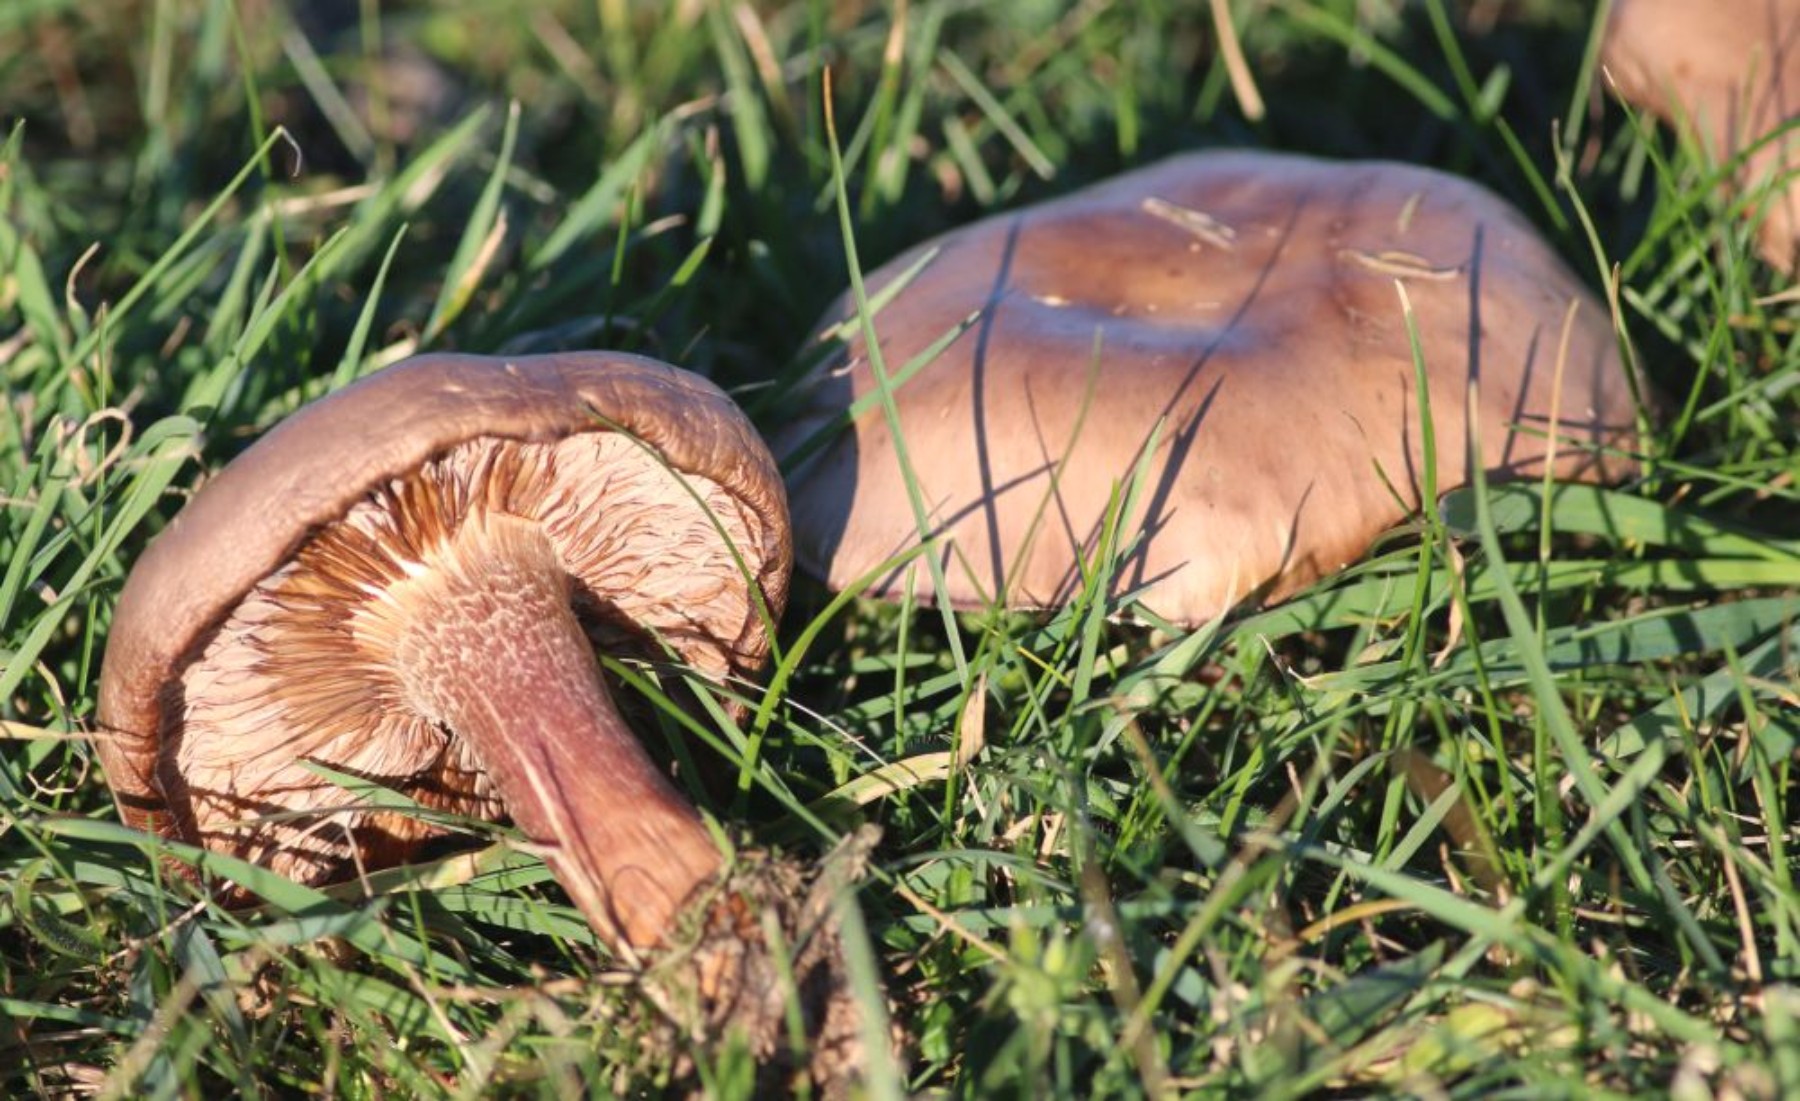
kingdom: Fungi
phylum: Basidiomycota
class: Agaricomycetes
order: Agaricales
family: Tricholomataceae
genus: Lepista
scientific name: Lepista
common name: hekseringshat
